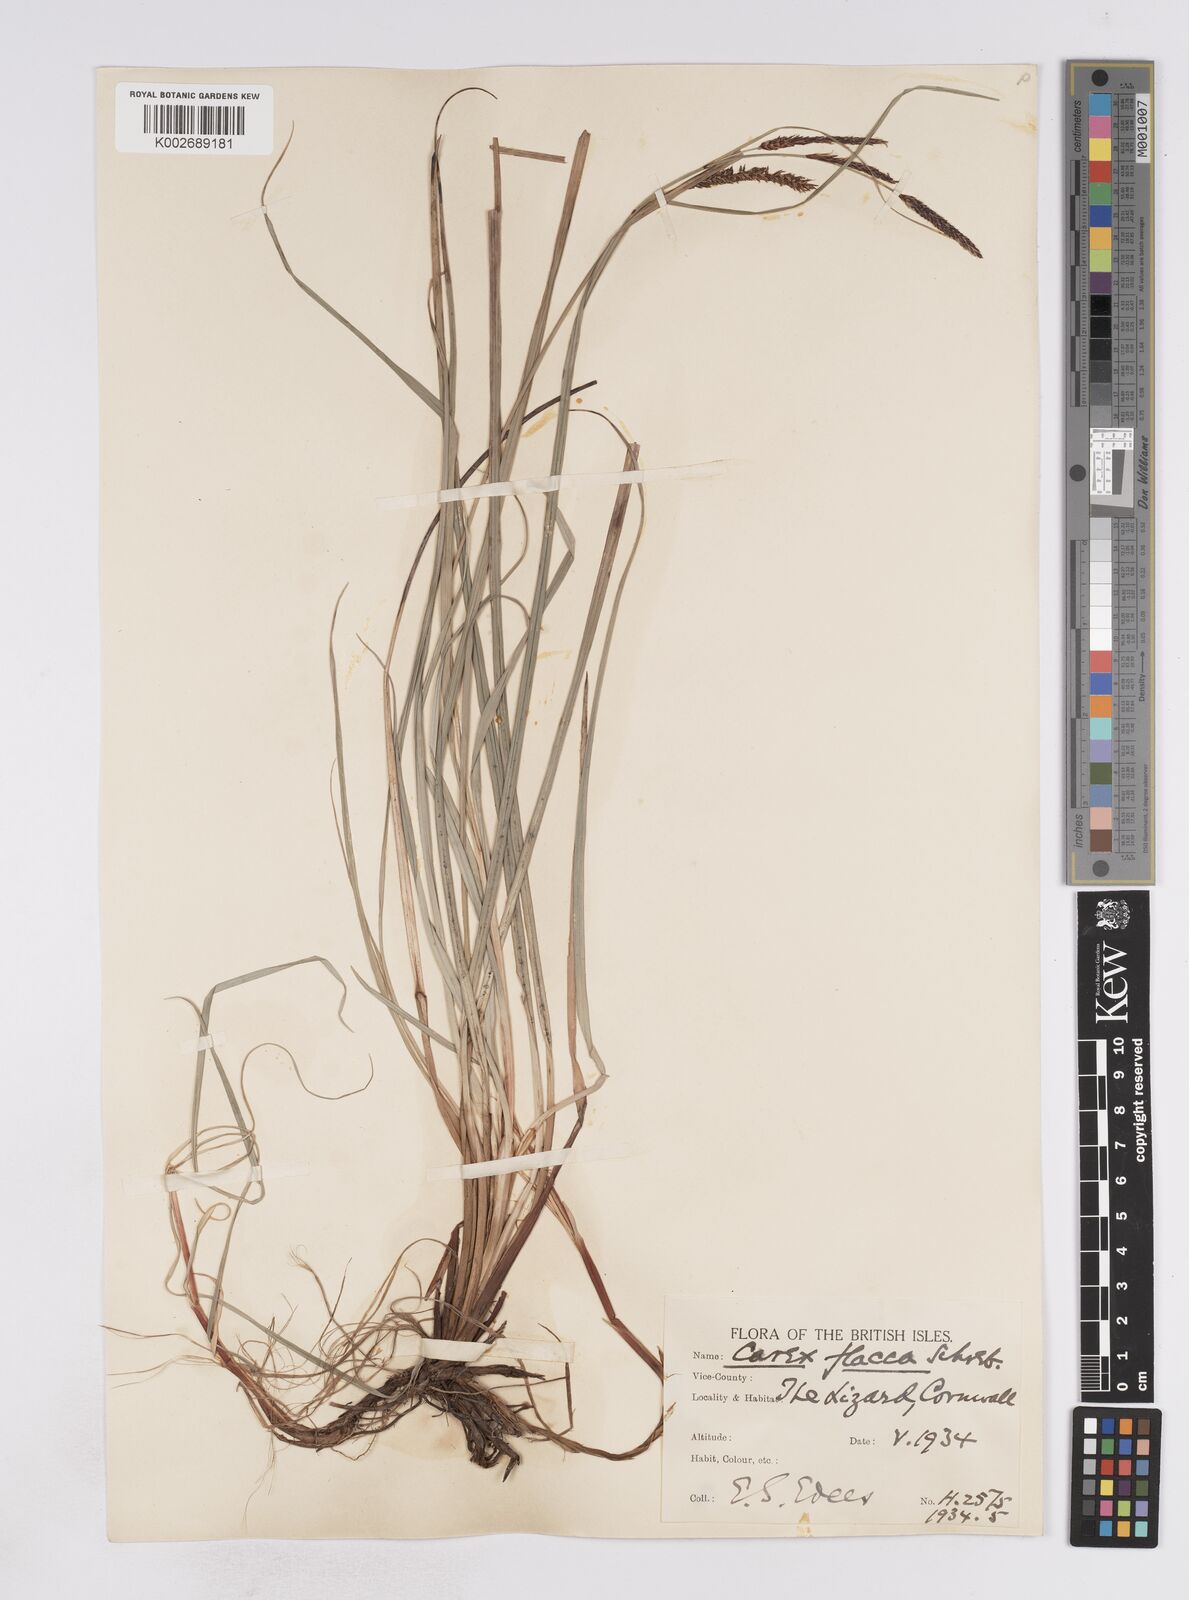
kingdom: Plantae
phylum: Tracheophyta
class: Liliopsida
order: Poales
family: Cyperaceae
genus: Carex
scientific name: Carex flacca
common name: Glaucous sedge
